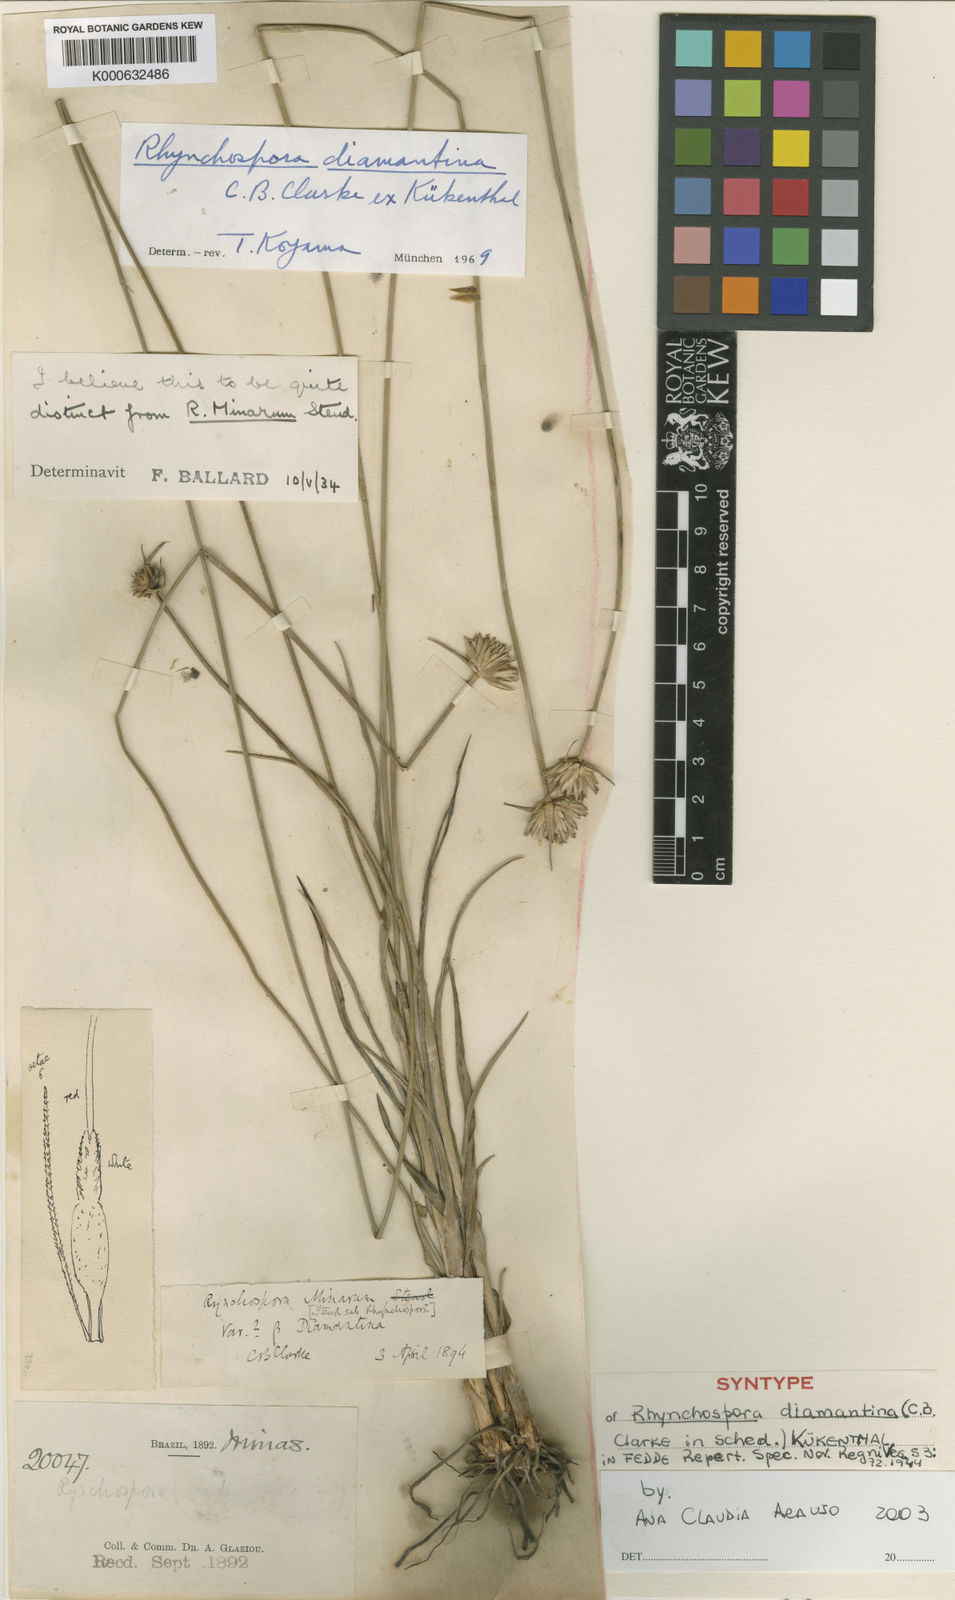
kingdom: Plantae
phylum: Tracheophyta
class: Liliopsida
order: Poales
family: Cyperaceae
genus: Rhynchospora
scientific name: Rhynchospora
